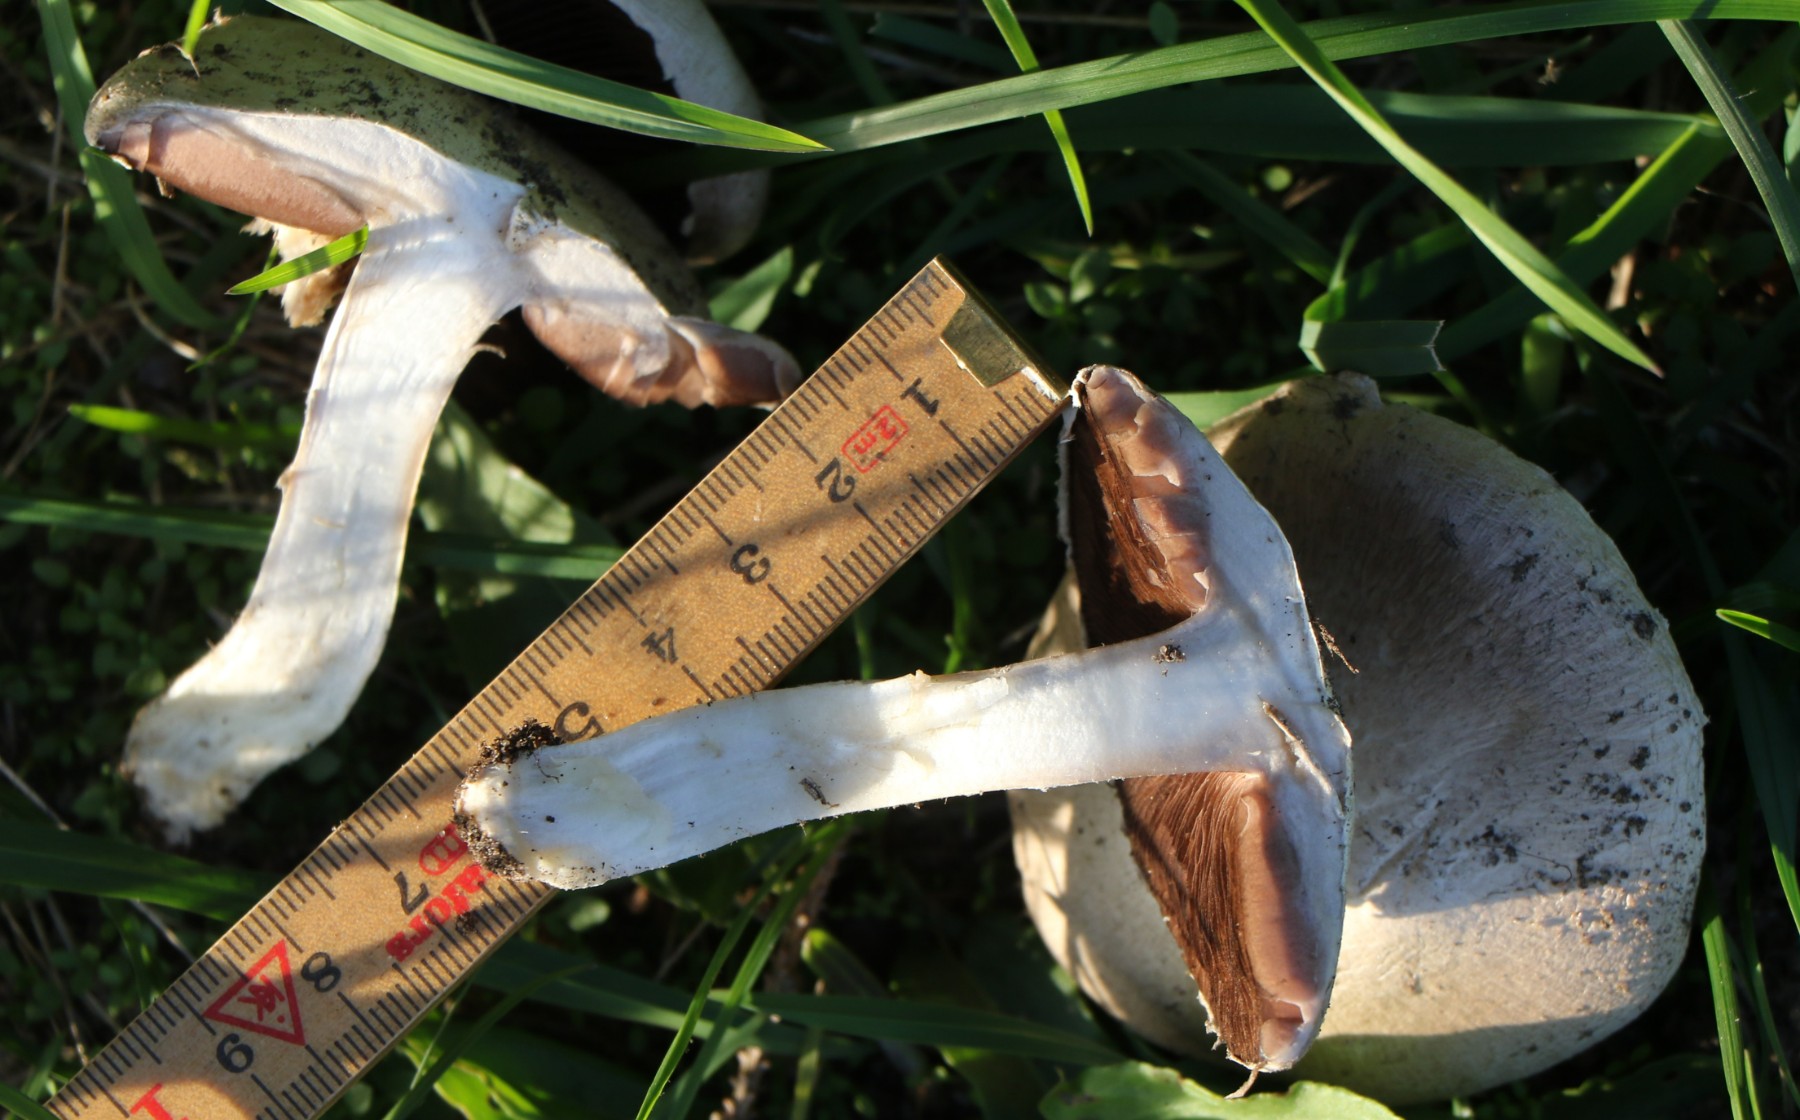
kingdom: Fungi
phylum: Basidiomycota
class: Agaricomycetes
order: Agaricales
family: Agaricaceae
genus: Agaricus
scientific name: Agaricus
